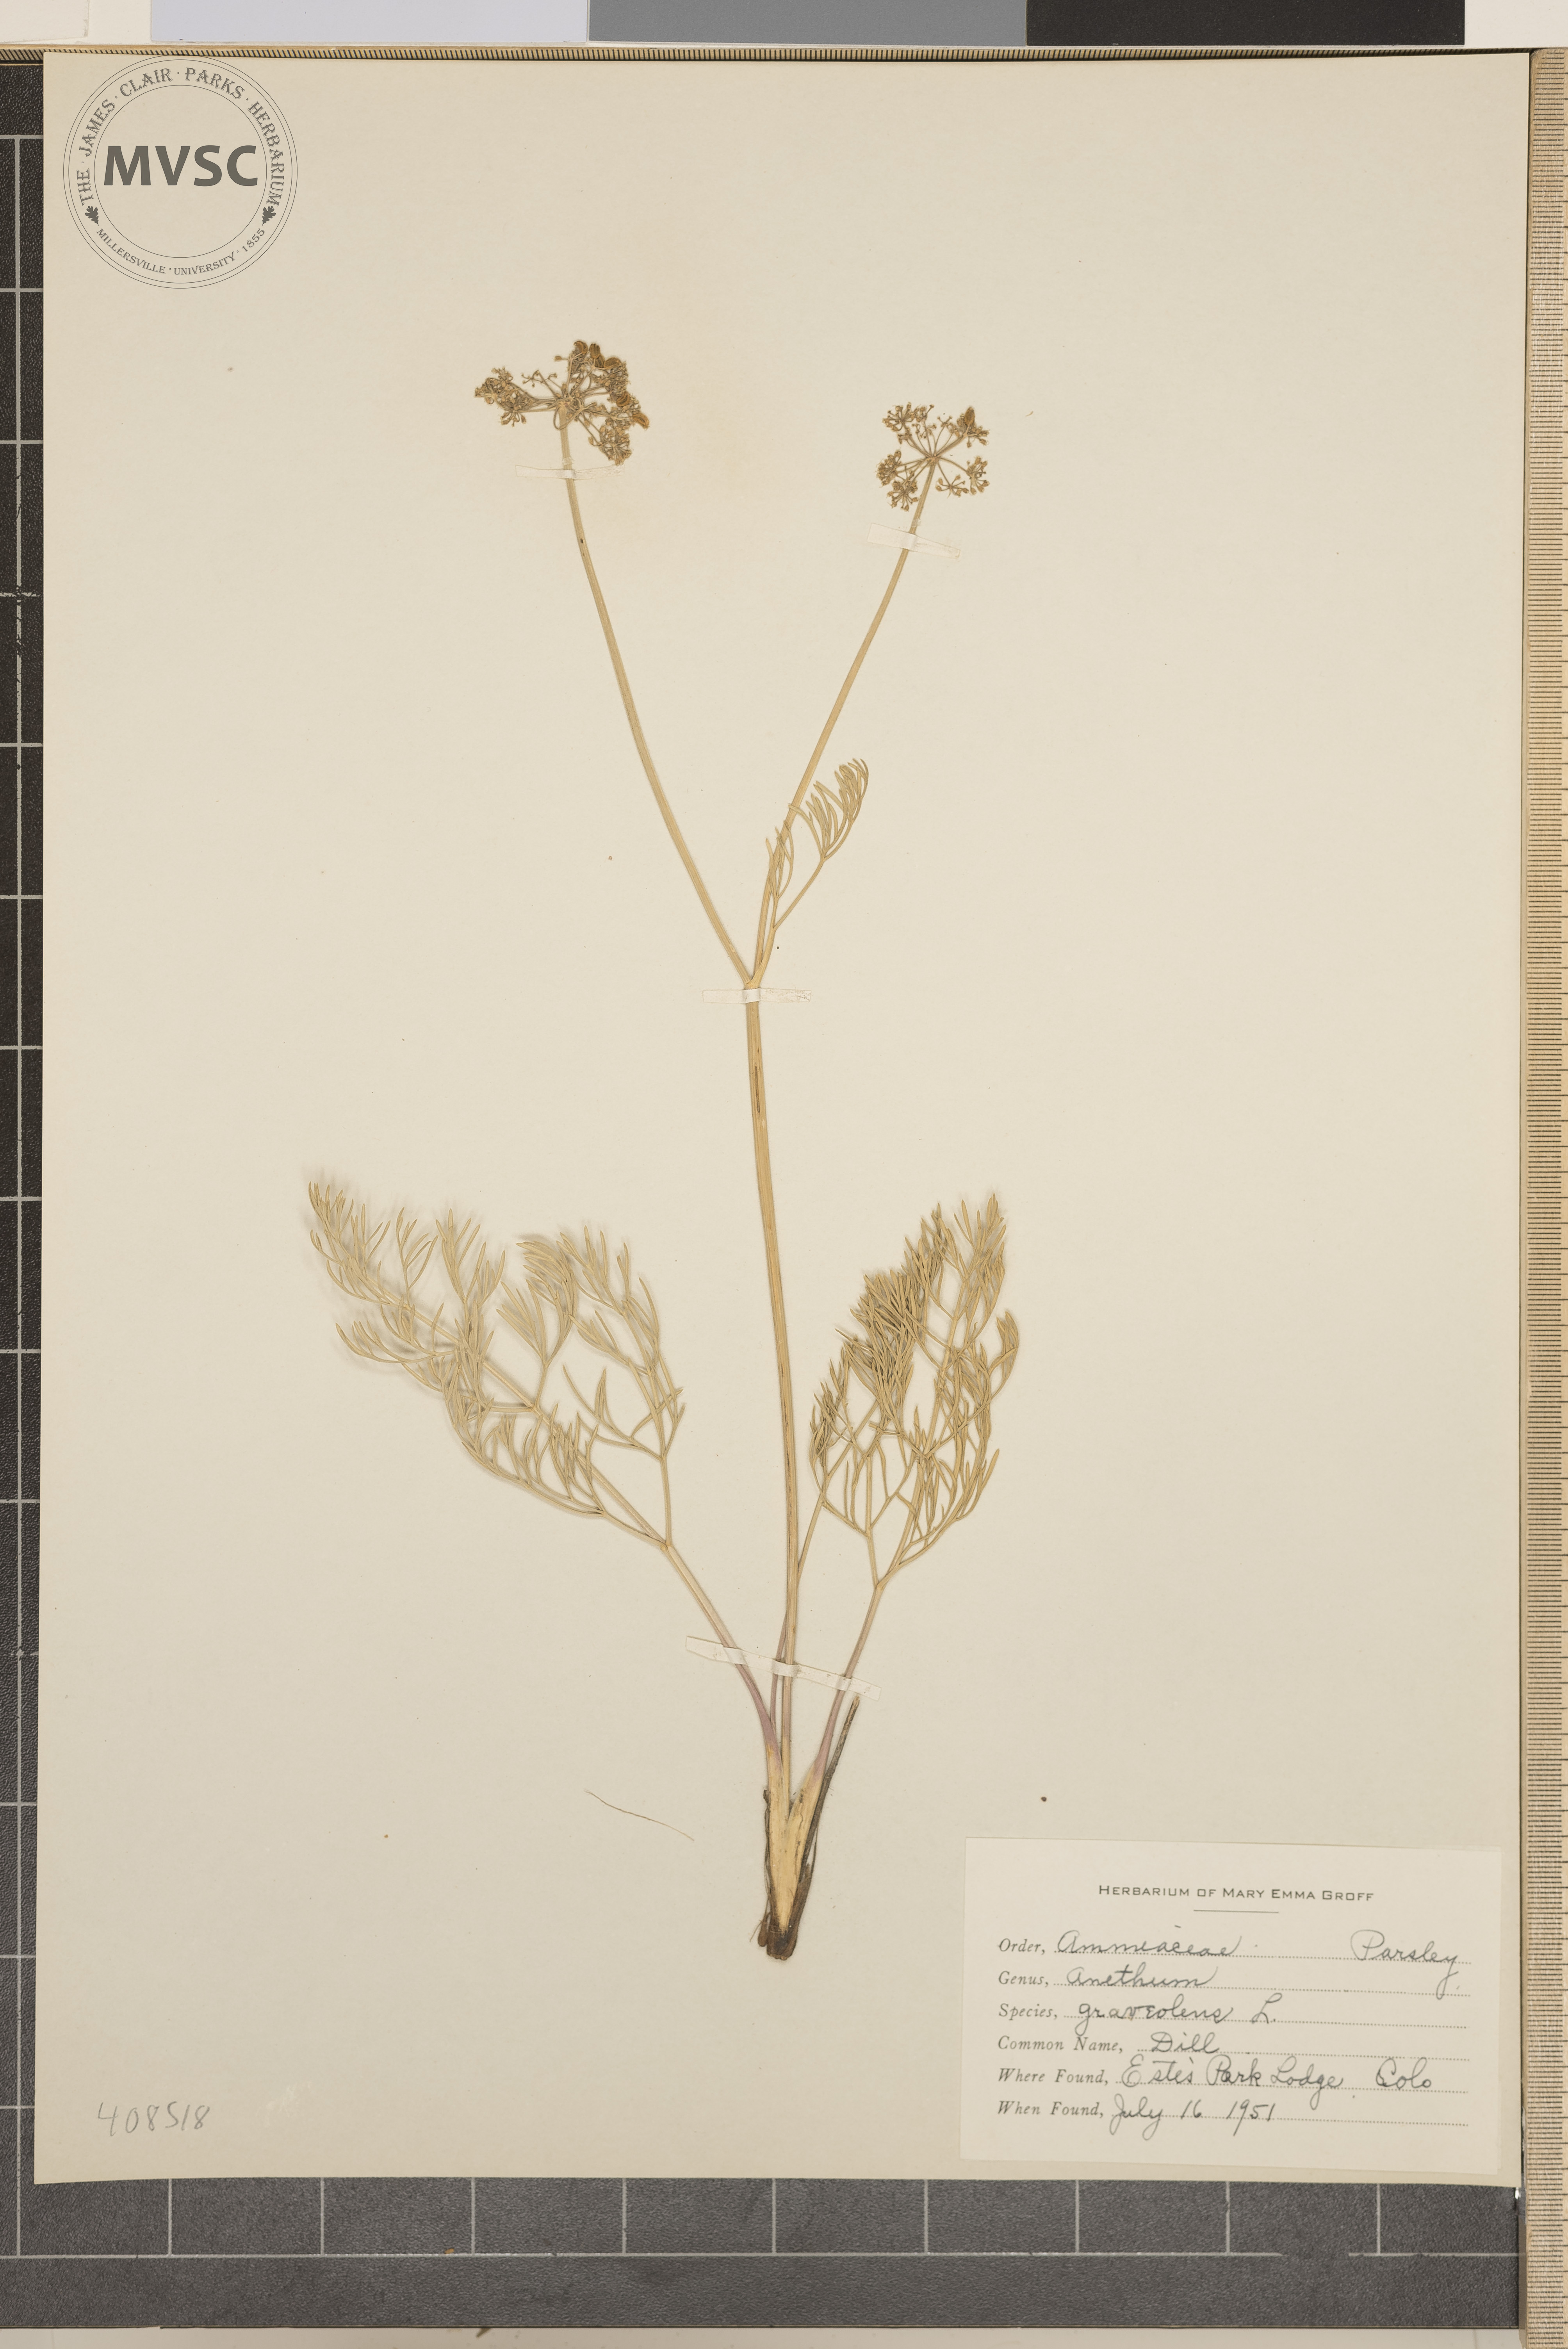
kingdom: Plantae
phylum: Tracheophyta
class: Magnoliopsida
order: Apiales
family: Apiaceae
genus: Anethum
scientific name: Anethum graveolens
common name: Dill
